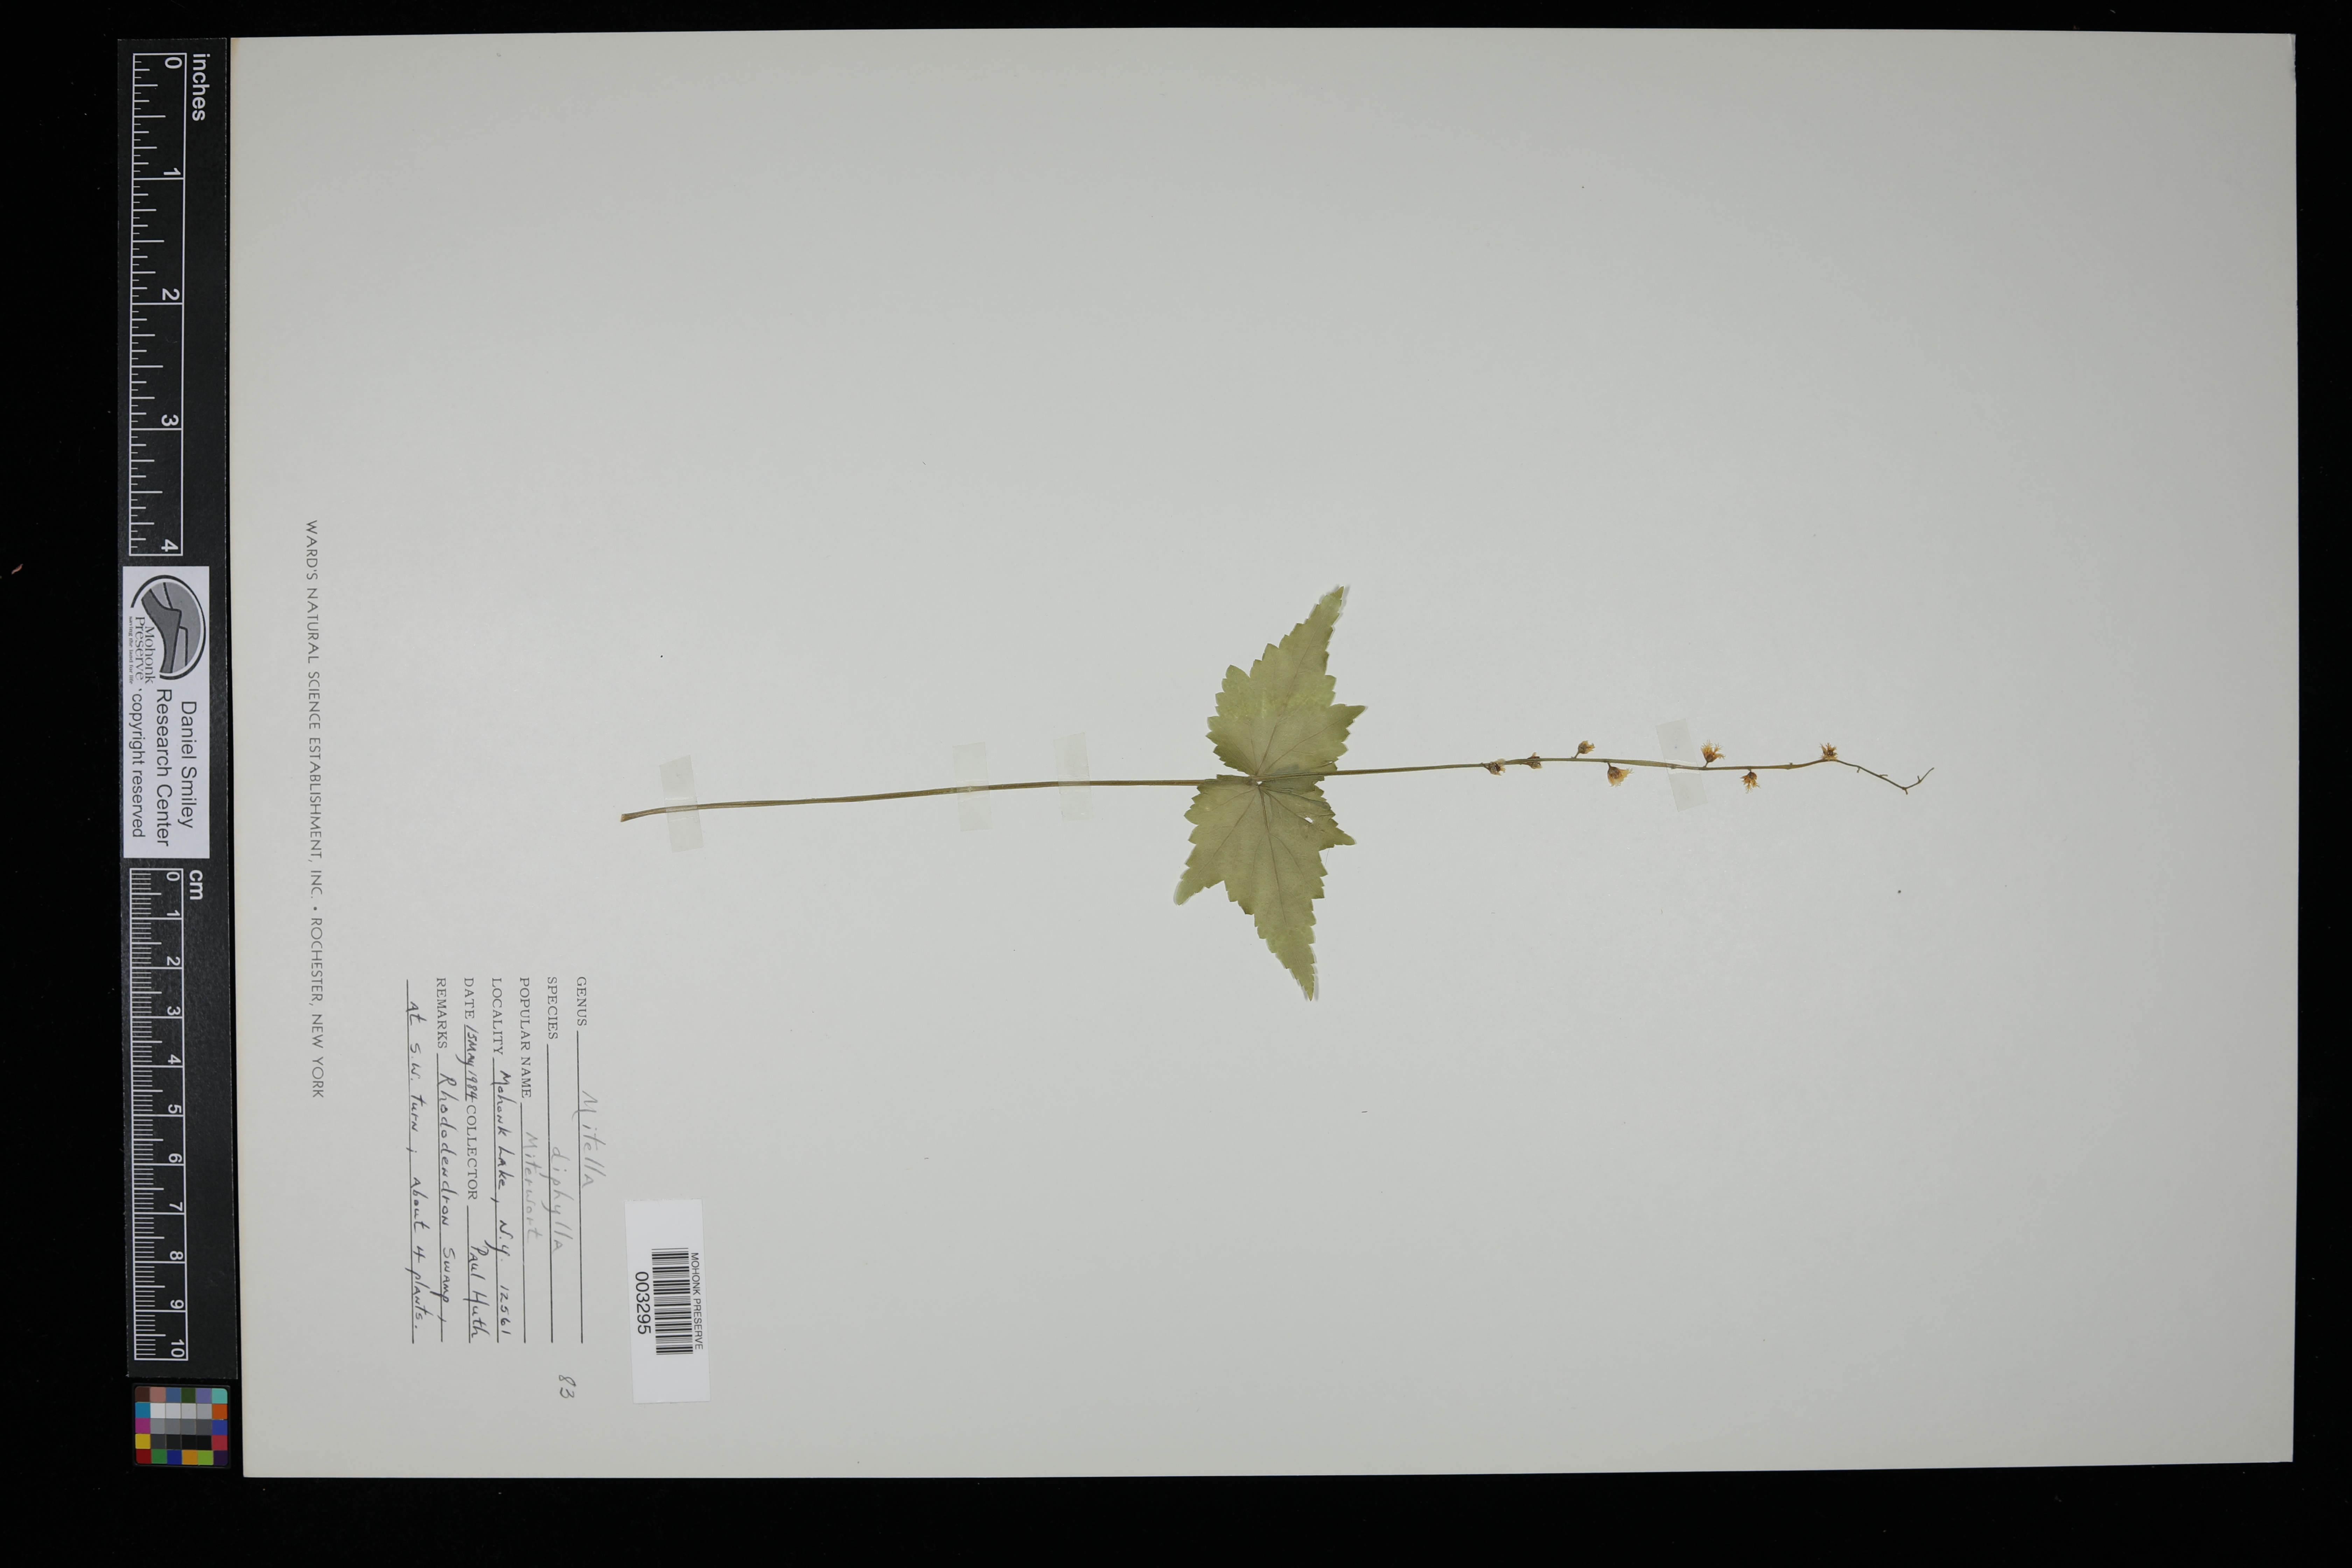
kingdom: Plantae
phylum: Tracheophyta
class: Magnoliopsida
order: Saxifragales
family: Saxifragaceae
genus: Mitella
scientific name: Mitella diphylla
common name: Coolwort
